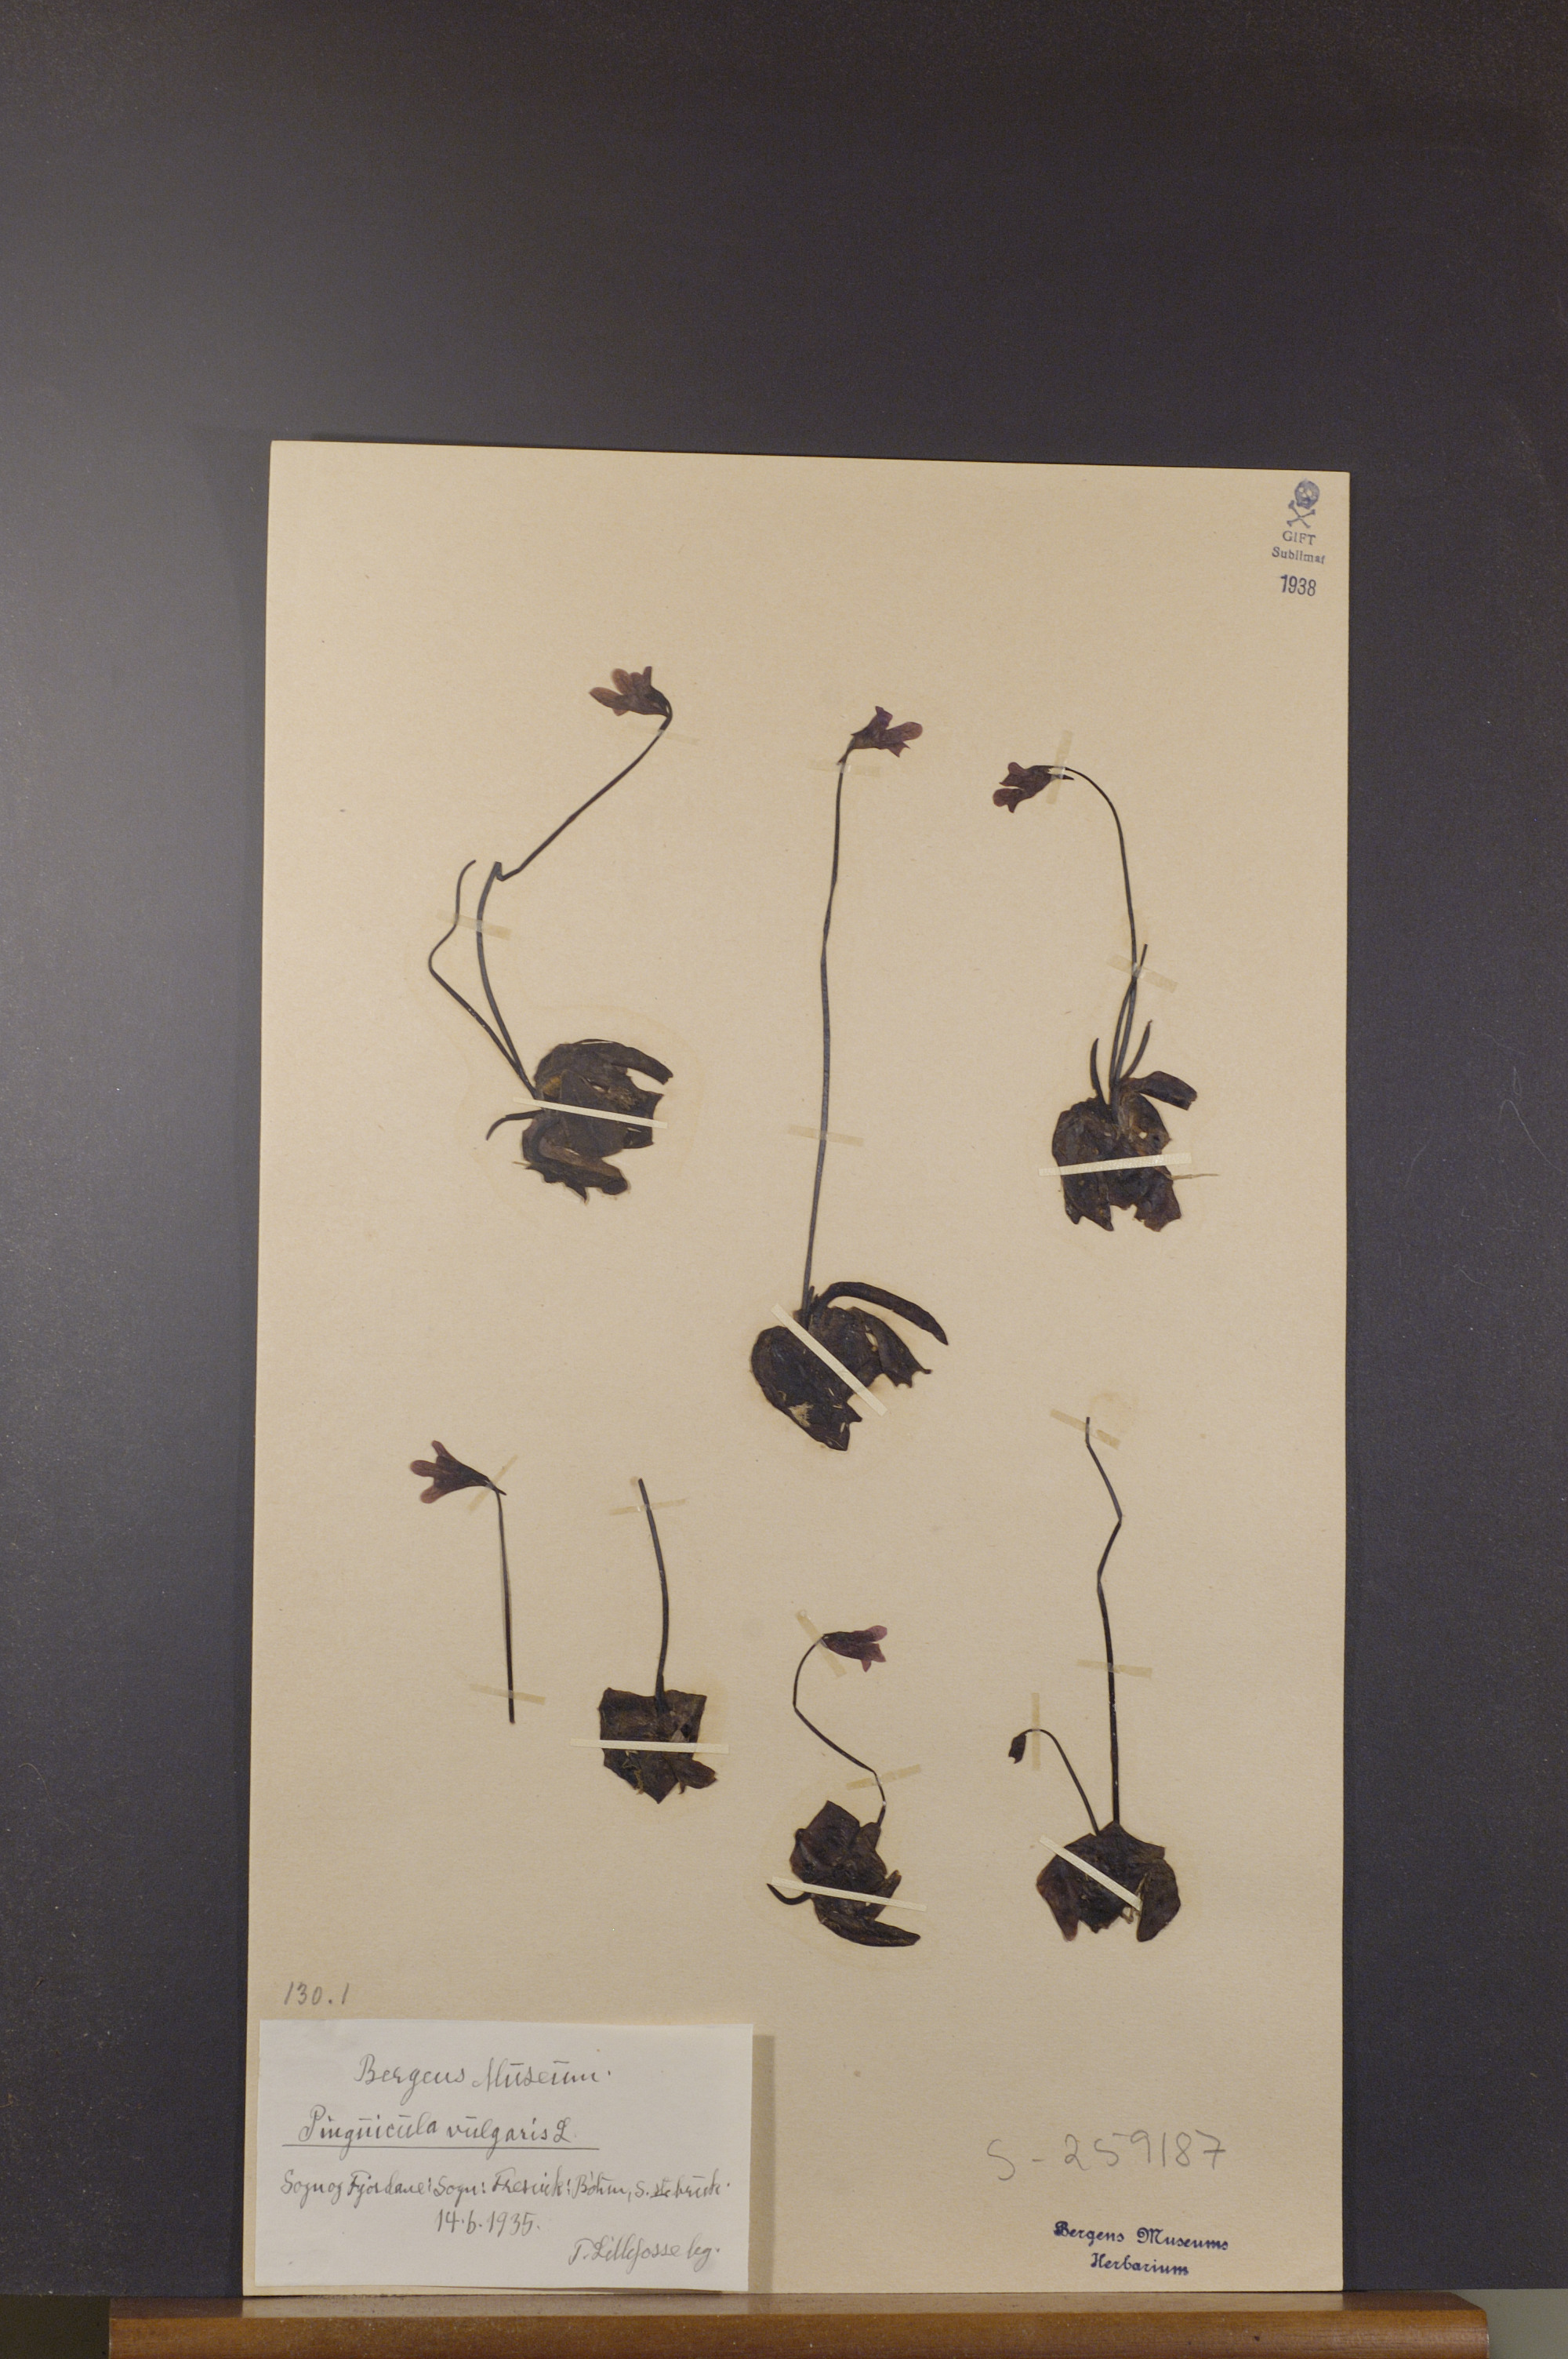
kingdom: Plantae
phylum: Tracheophyta
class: Magnoliopsida
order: Lamiales
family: Lentibulariaceae
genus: Pinguicula
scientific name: Pinguicula vulgaris
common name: Common butterwort
